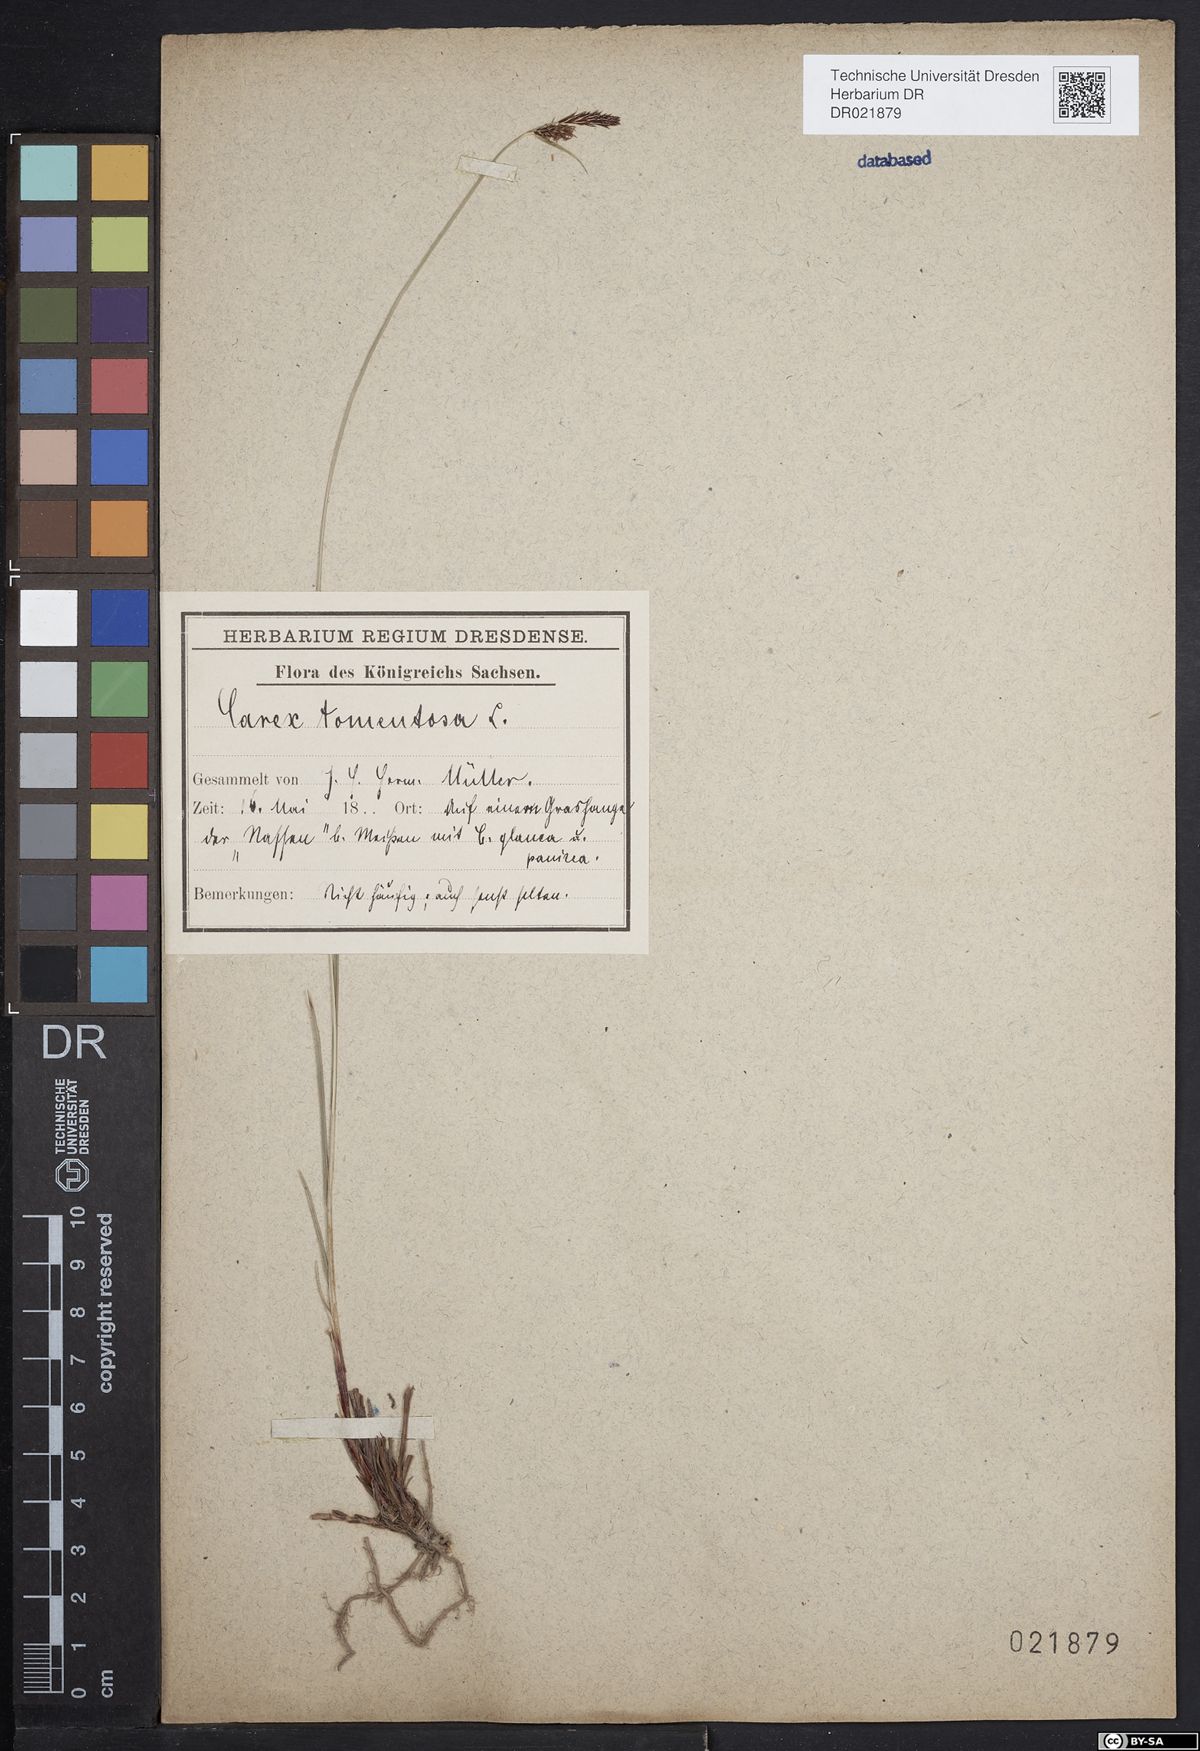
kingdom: Plantae
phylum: Tracheophyta
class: Liliopsida
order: Poales
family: Cyperaceae
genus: Carex
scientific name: Carex tomentosa
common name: Downy-fruited sedge
